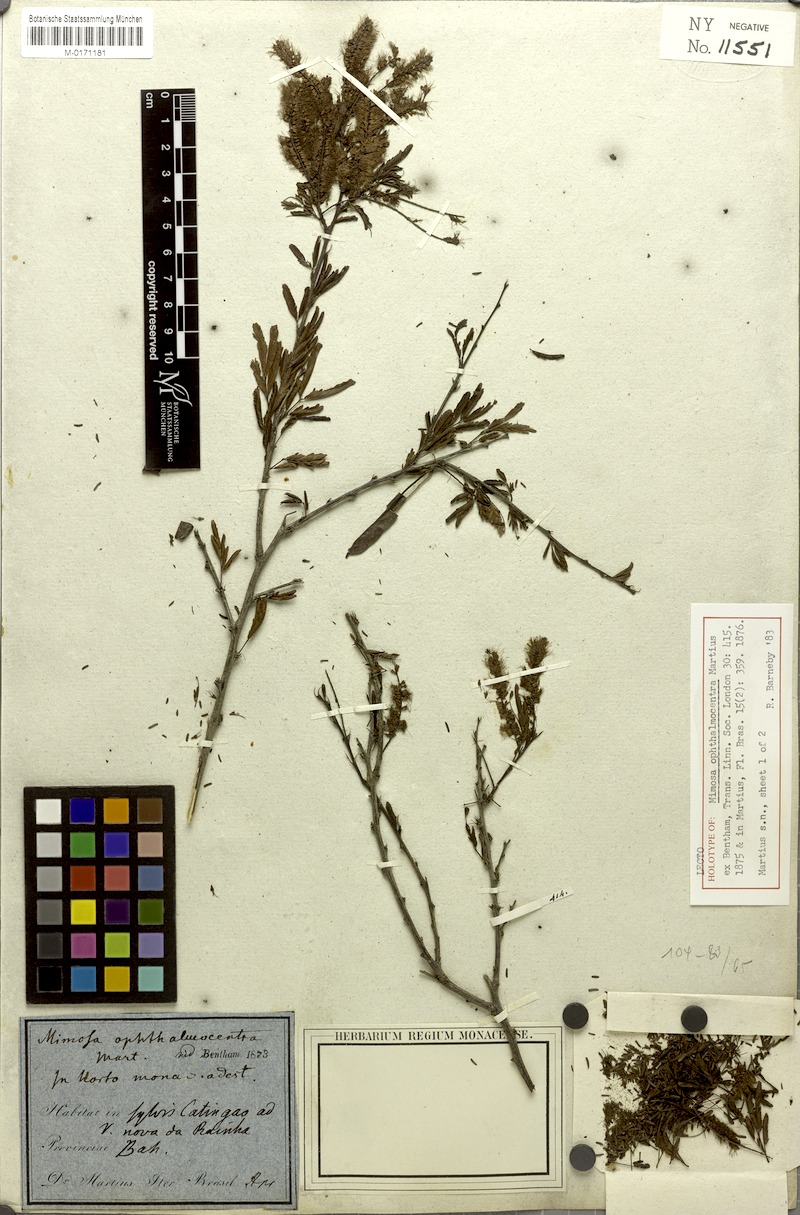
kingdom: Plantae
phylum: Tracheophyta
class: Magnoliopsida
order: Fabales
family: Fabaceae
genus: Mimosa
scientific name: Mimosa ophthalmocentra
